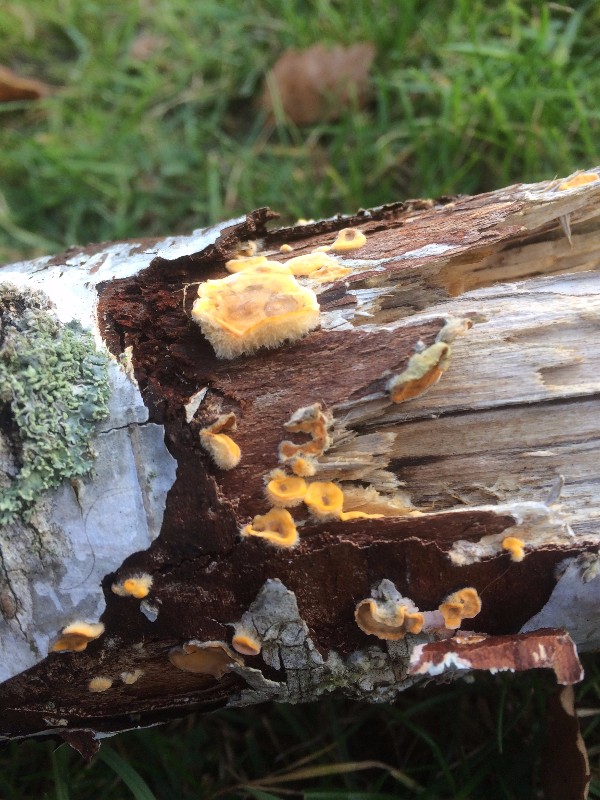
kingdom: Fungi
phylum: Basidiomycota
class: Agaricomycetes
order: Russulales
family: Stereaceae
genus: Stereum
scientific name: Stereum hirsutum
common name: håret lædersvamp
